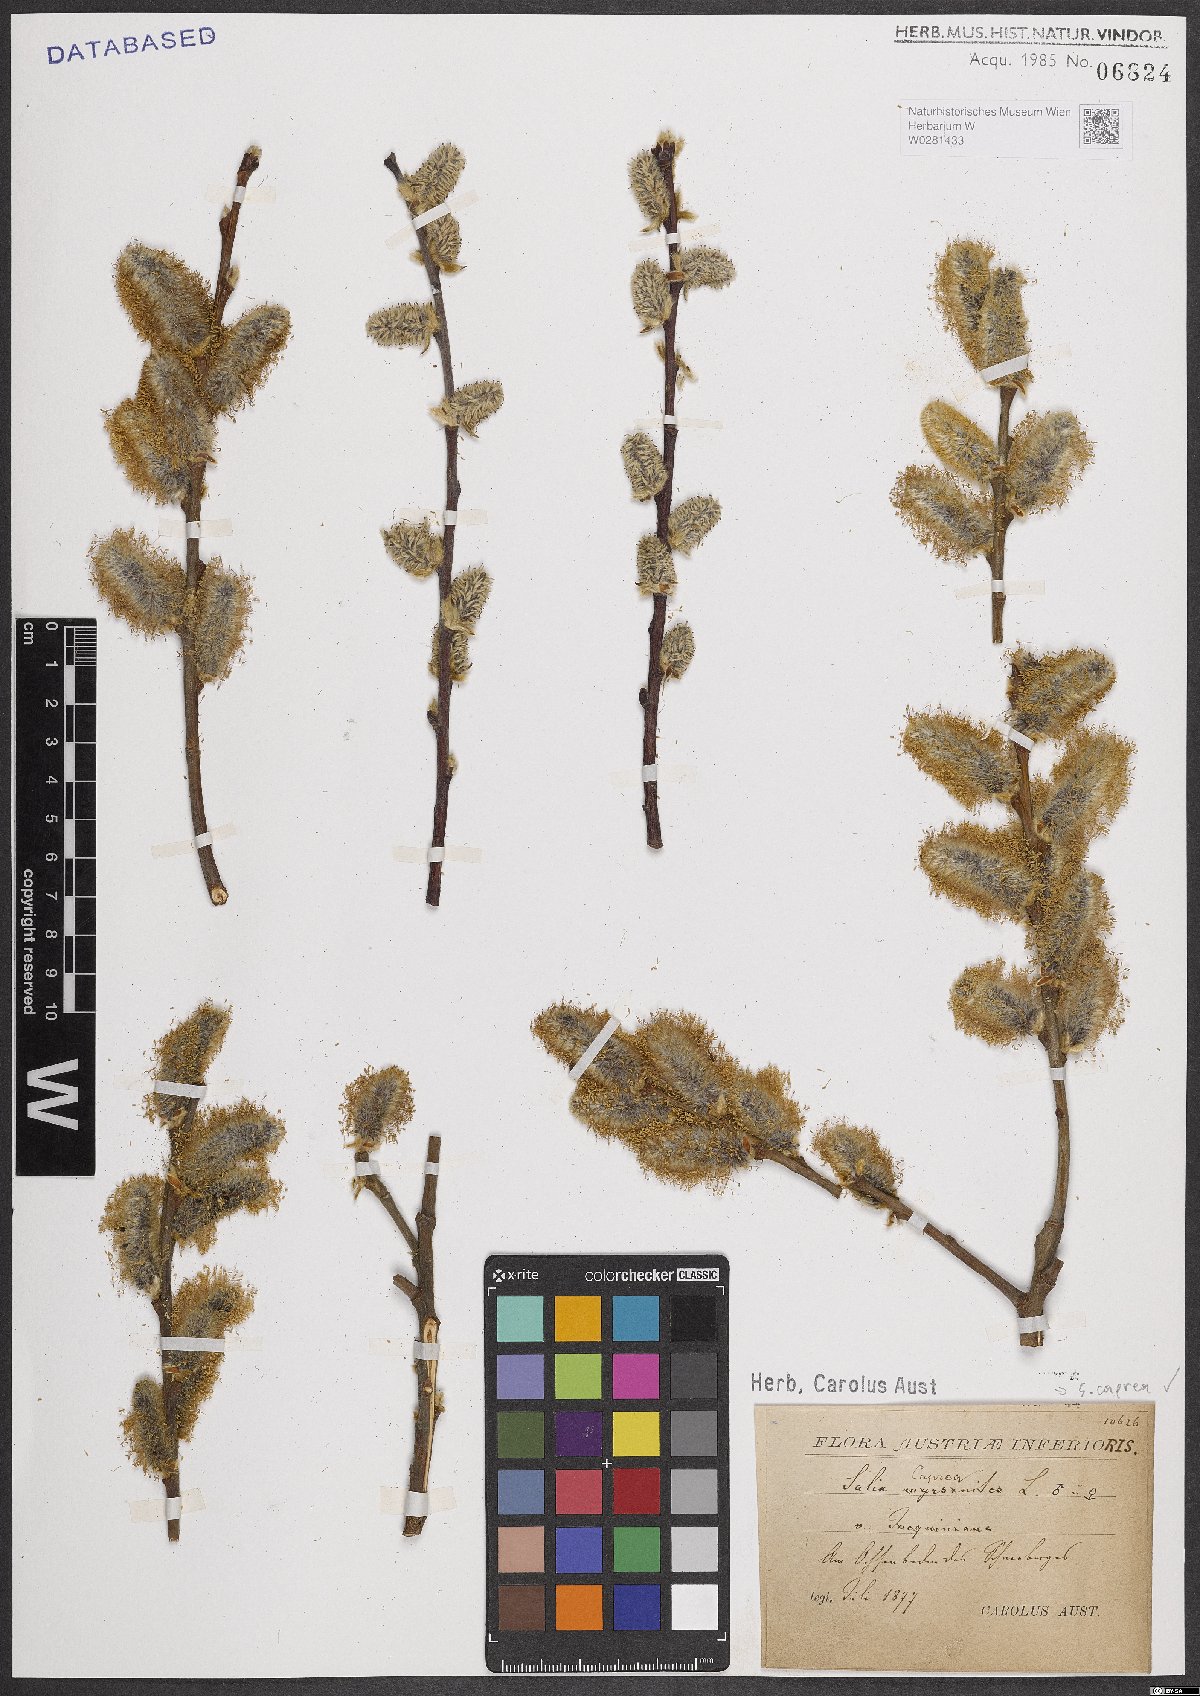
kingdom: Plantae
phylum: Tracheophyta
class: Magnoliopsida
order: Malpighiales
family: Salicaceae
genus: Salix
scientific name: Salix caprea
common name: Goat willow
